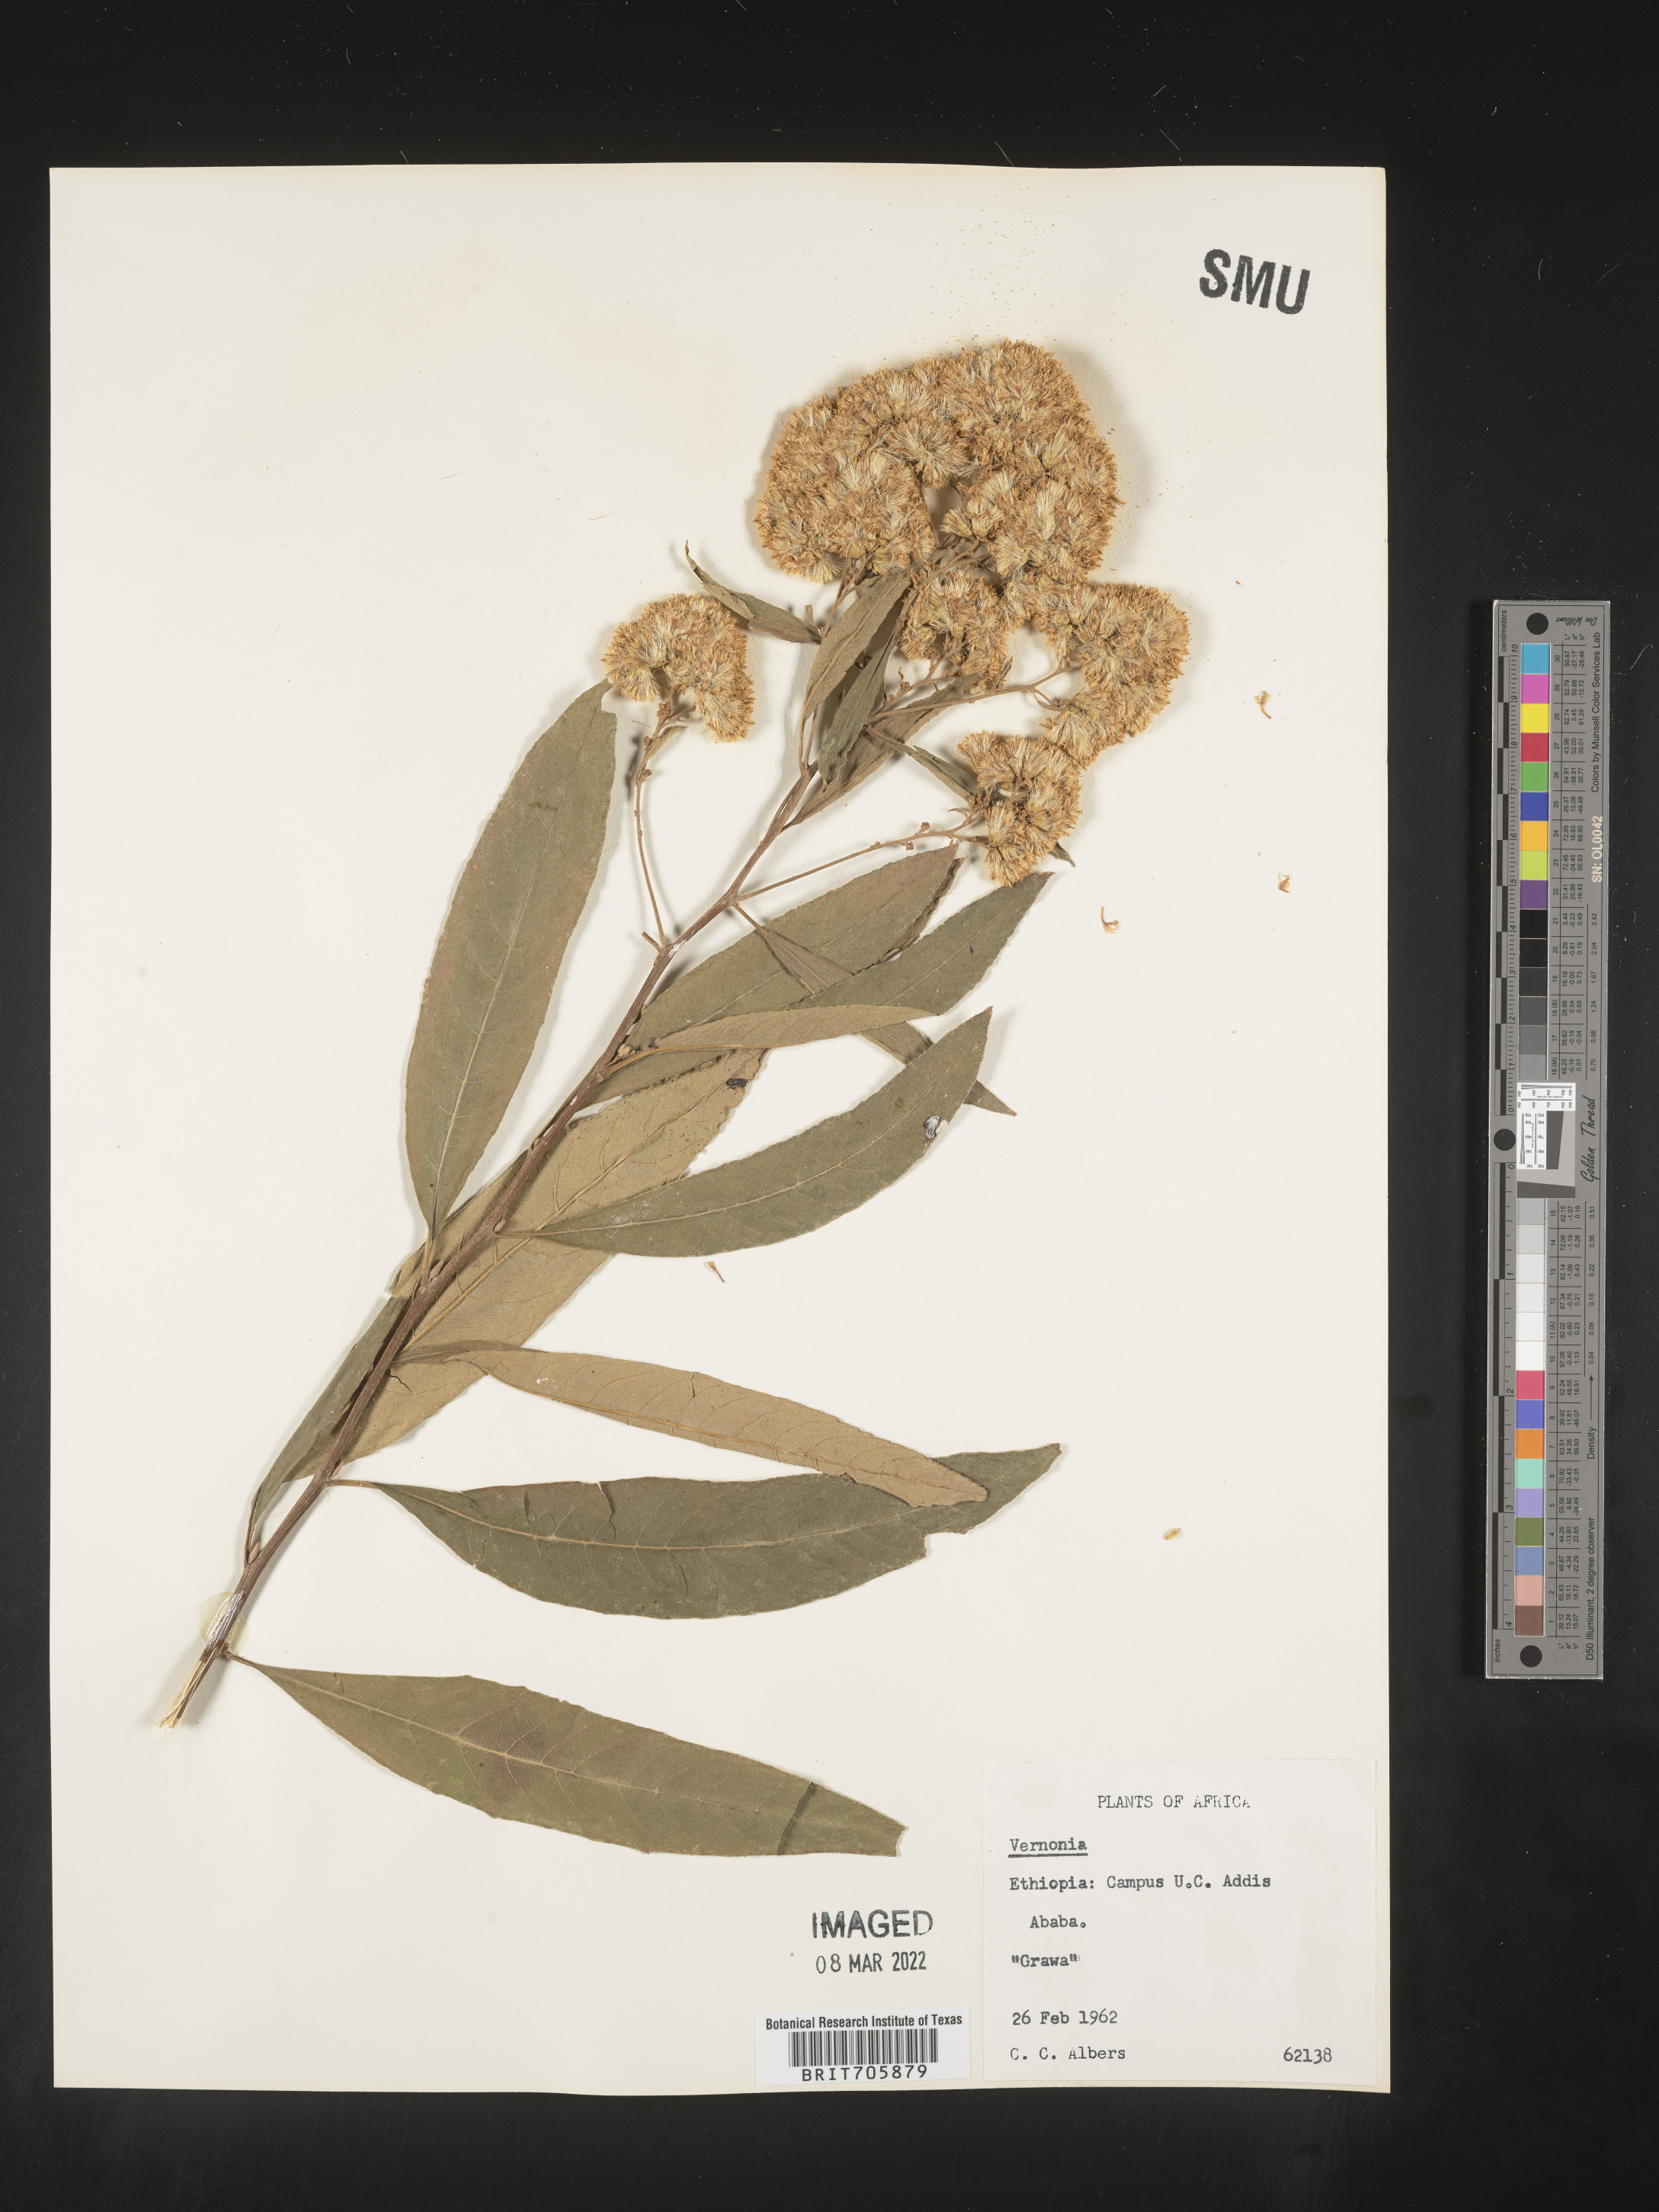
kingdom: Plantae
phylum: Tracheophyta
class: Magnoliopsida
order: Asterales
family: Asteraceae
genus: Vernonia
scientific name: Vernonia
